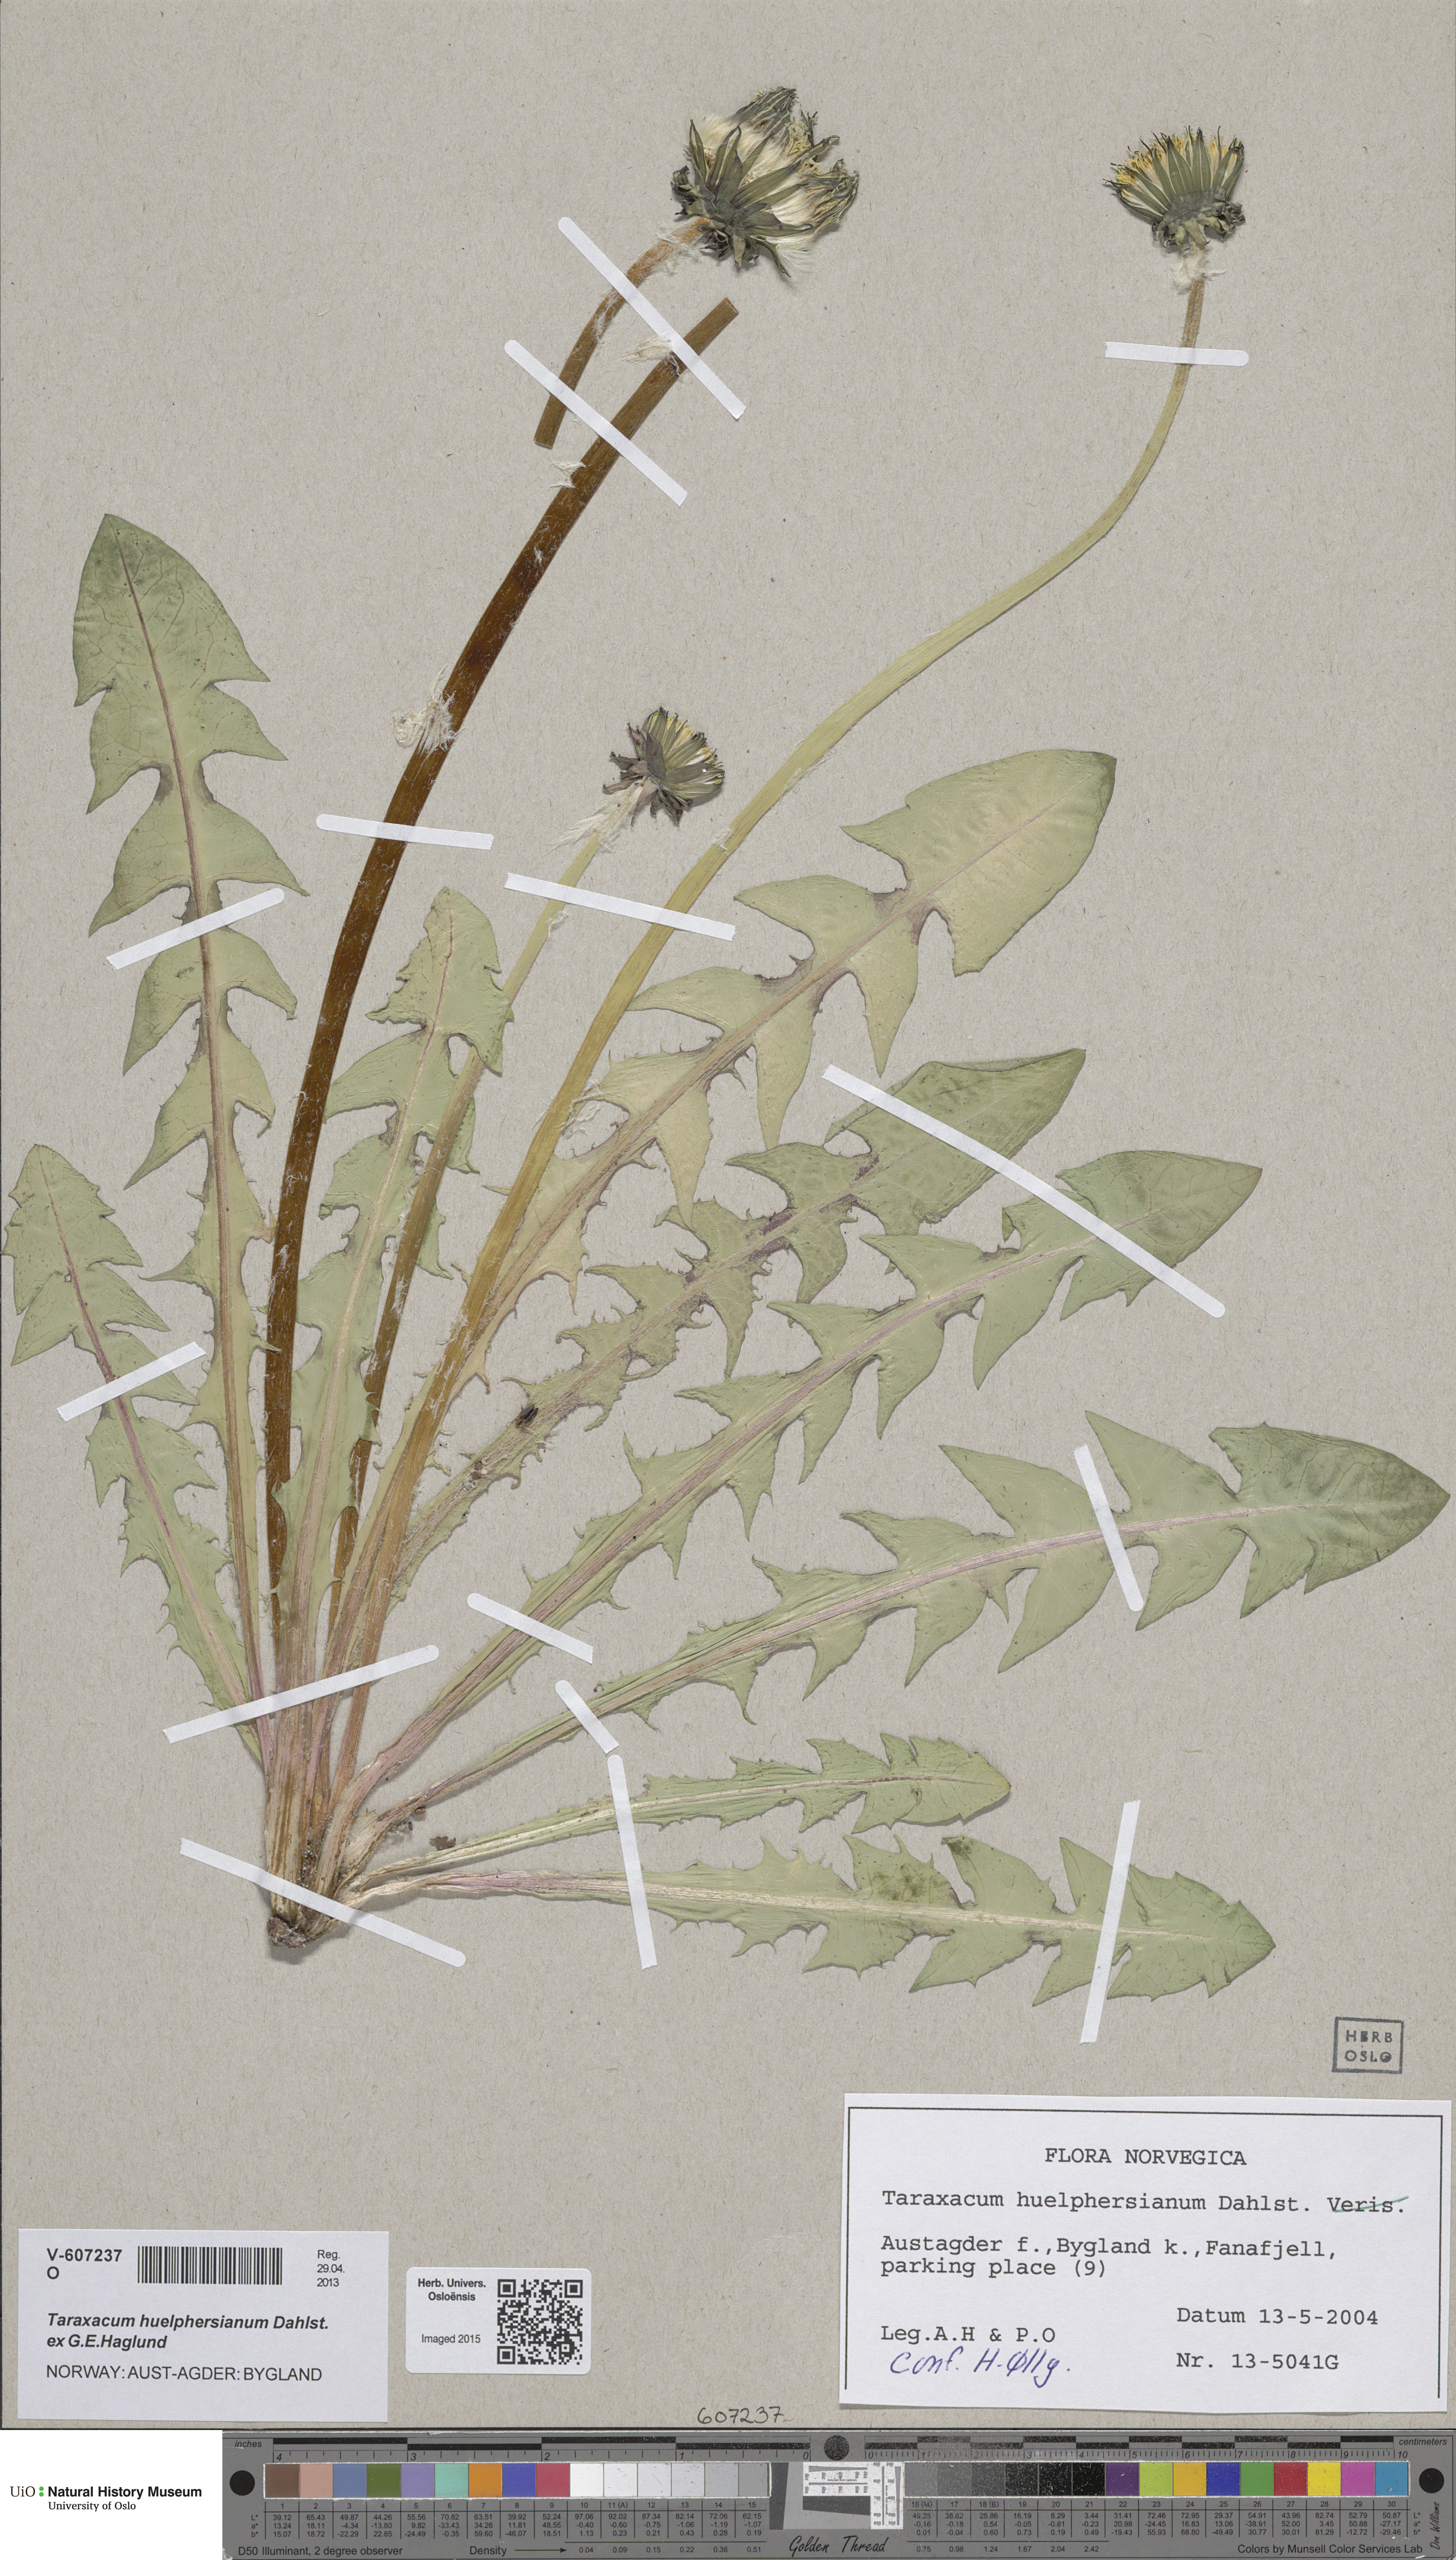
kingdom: Plantae
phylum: Tracheophyta
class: Magnoliopsida
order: Asterales
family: Asteraceae
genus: Taraxacum
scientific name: Taraxacum huelphersianum
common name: Hülphers's dandelion
